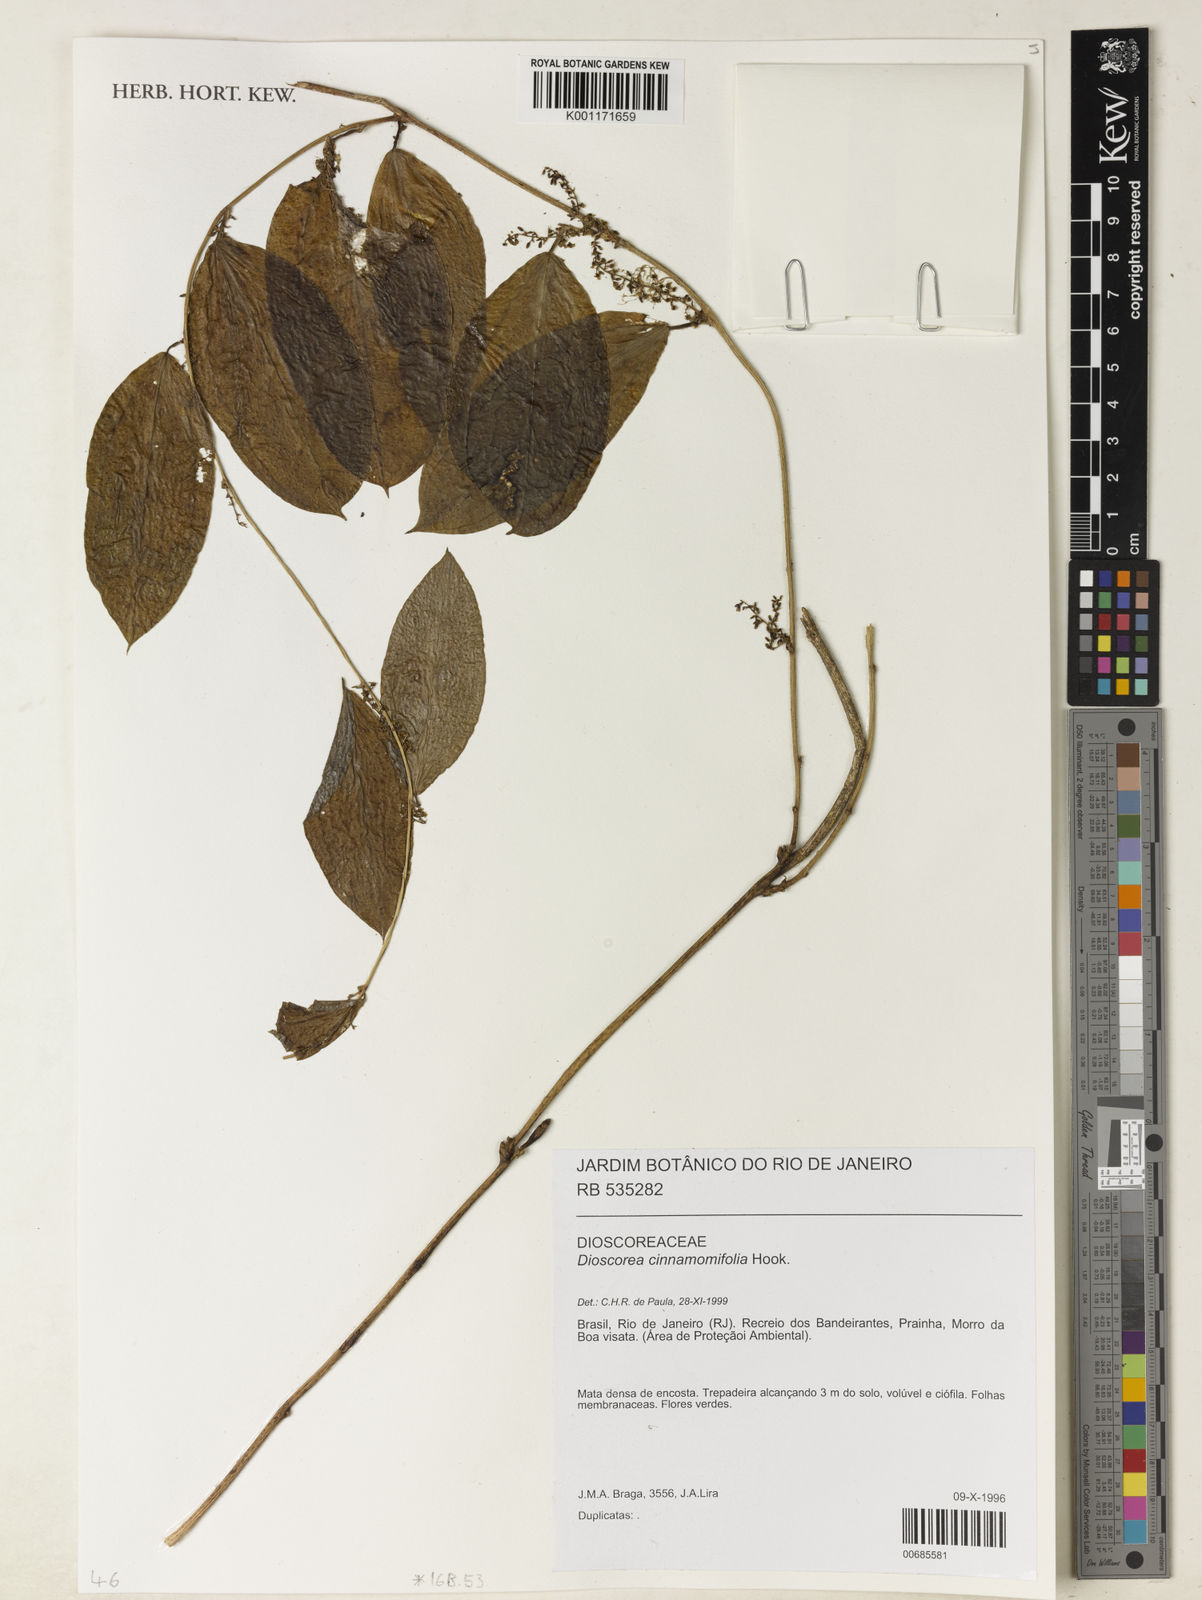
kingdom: Plantae
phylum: Tracheophyta
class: Liliopsida
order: Dioscoreales
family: Dioscoreaceae
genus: Dioscorea
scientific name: Dioscorea cinnamomifolia
